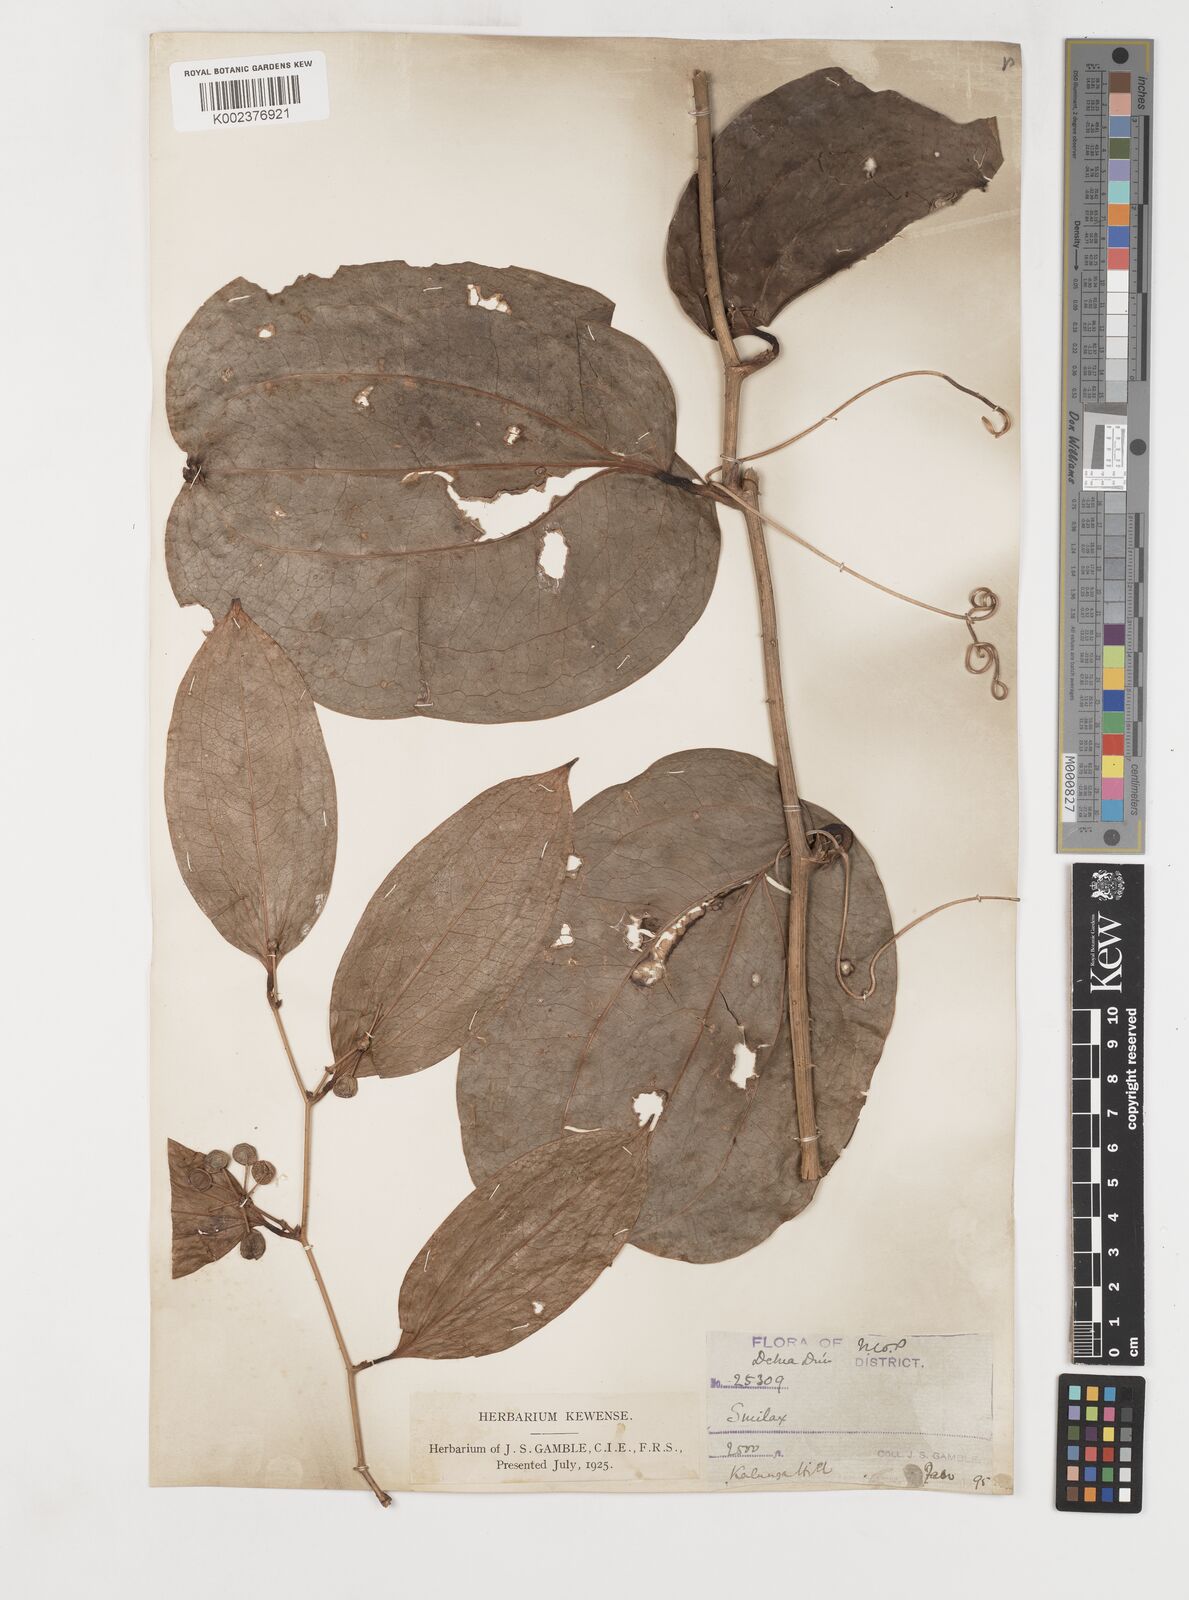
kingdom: Plantae
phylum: Tracheophyta
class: Liliopsida
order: Liliales
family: Smilacaceae
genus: Smilax
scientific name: Smilax ovalifolia
